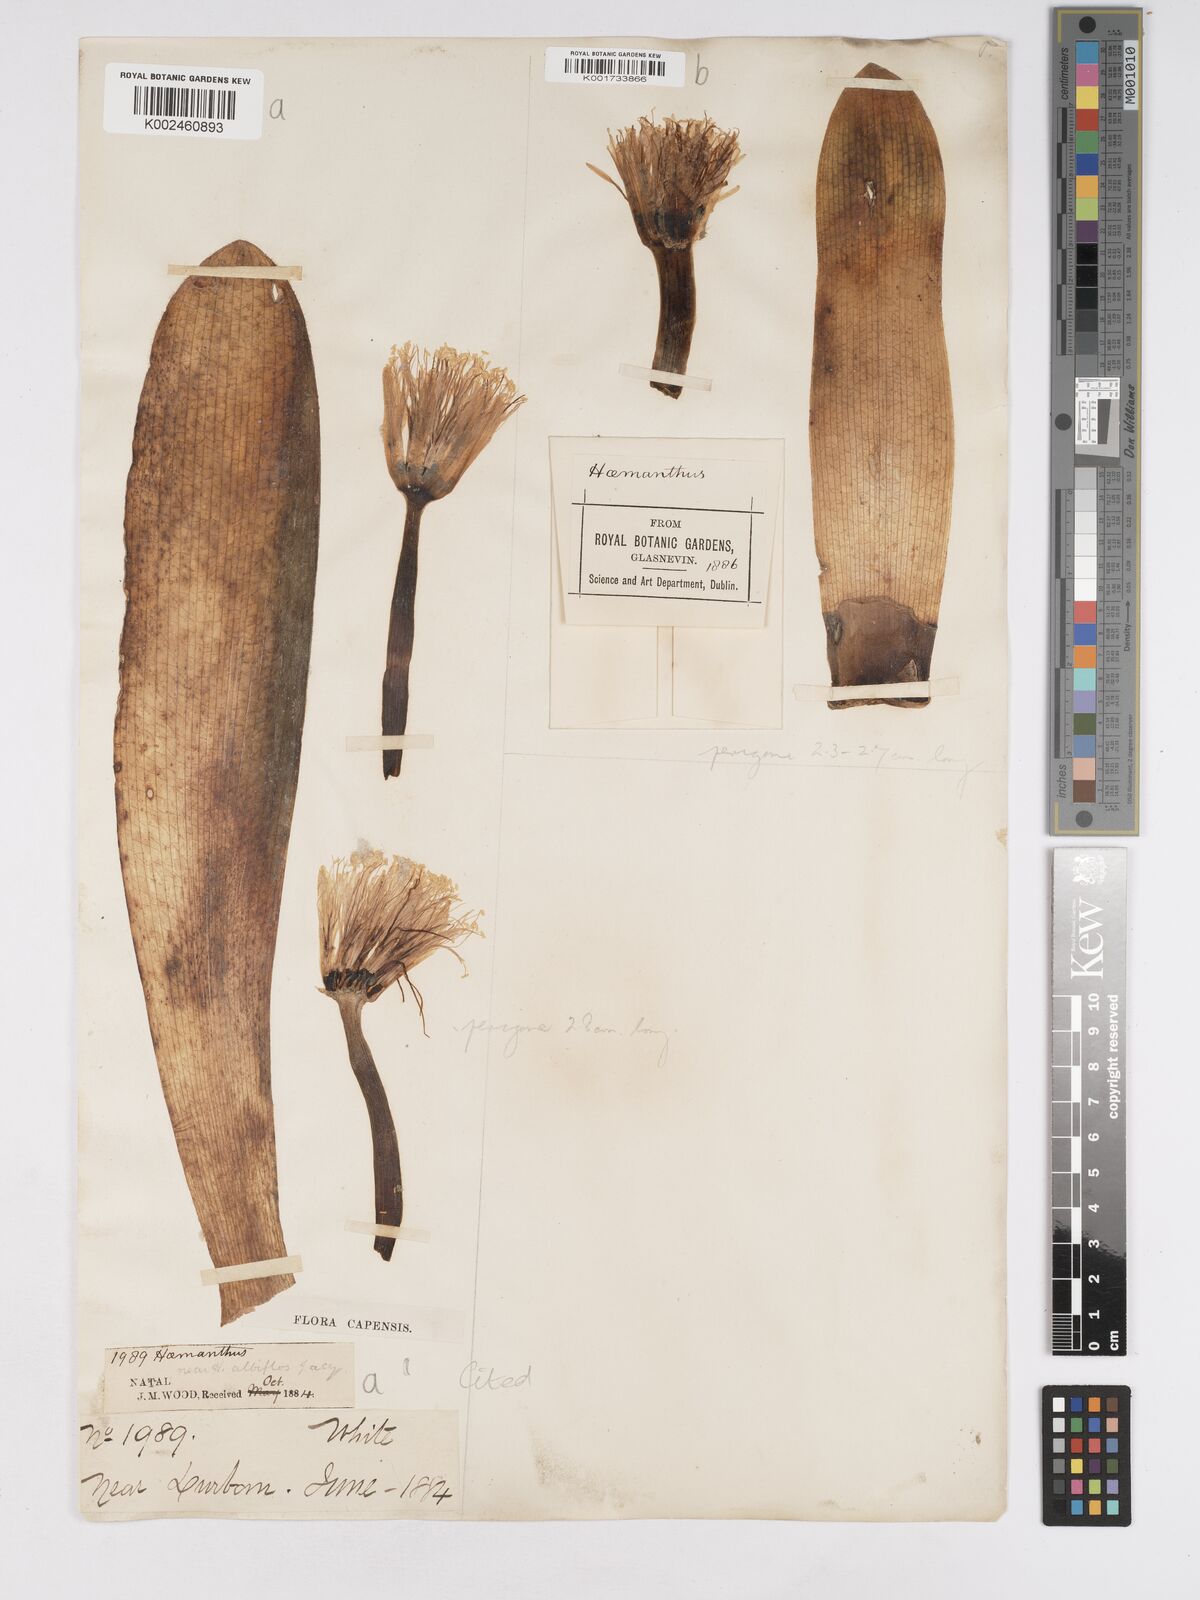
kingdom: Plantae
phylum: Tracheophyta
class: Liliopsida
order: Asparagales
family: Amaryllidaceae
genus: Haemanthus
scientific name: Haemanthus albiflos
